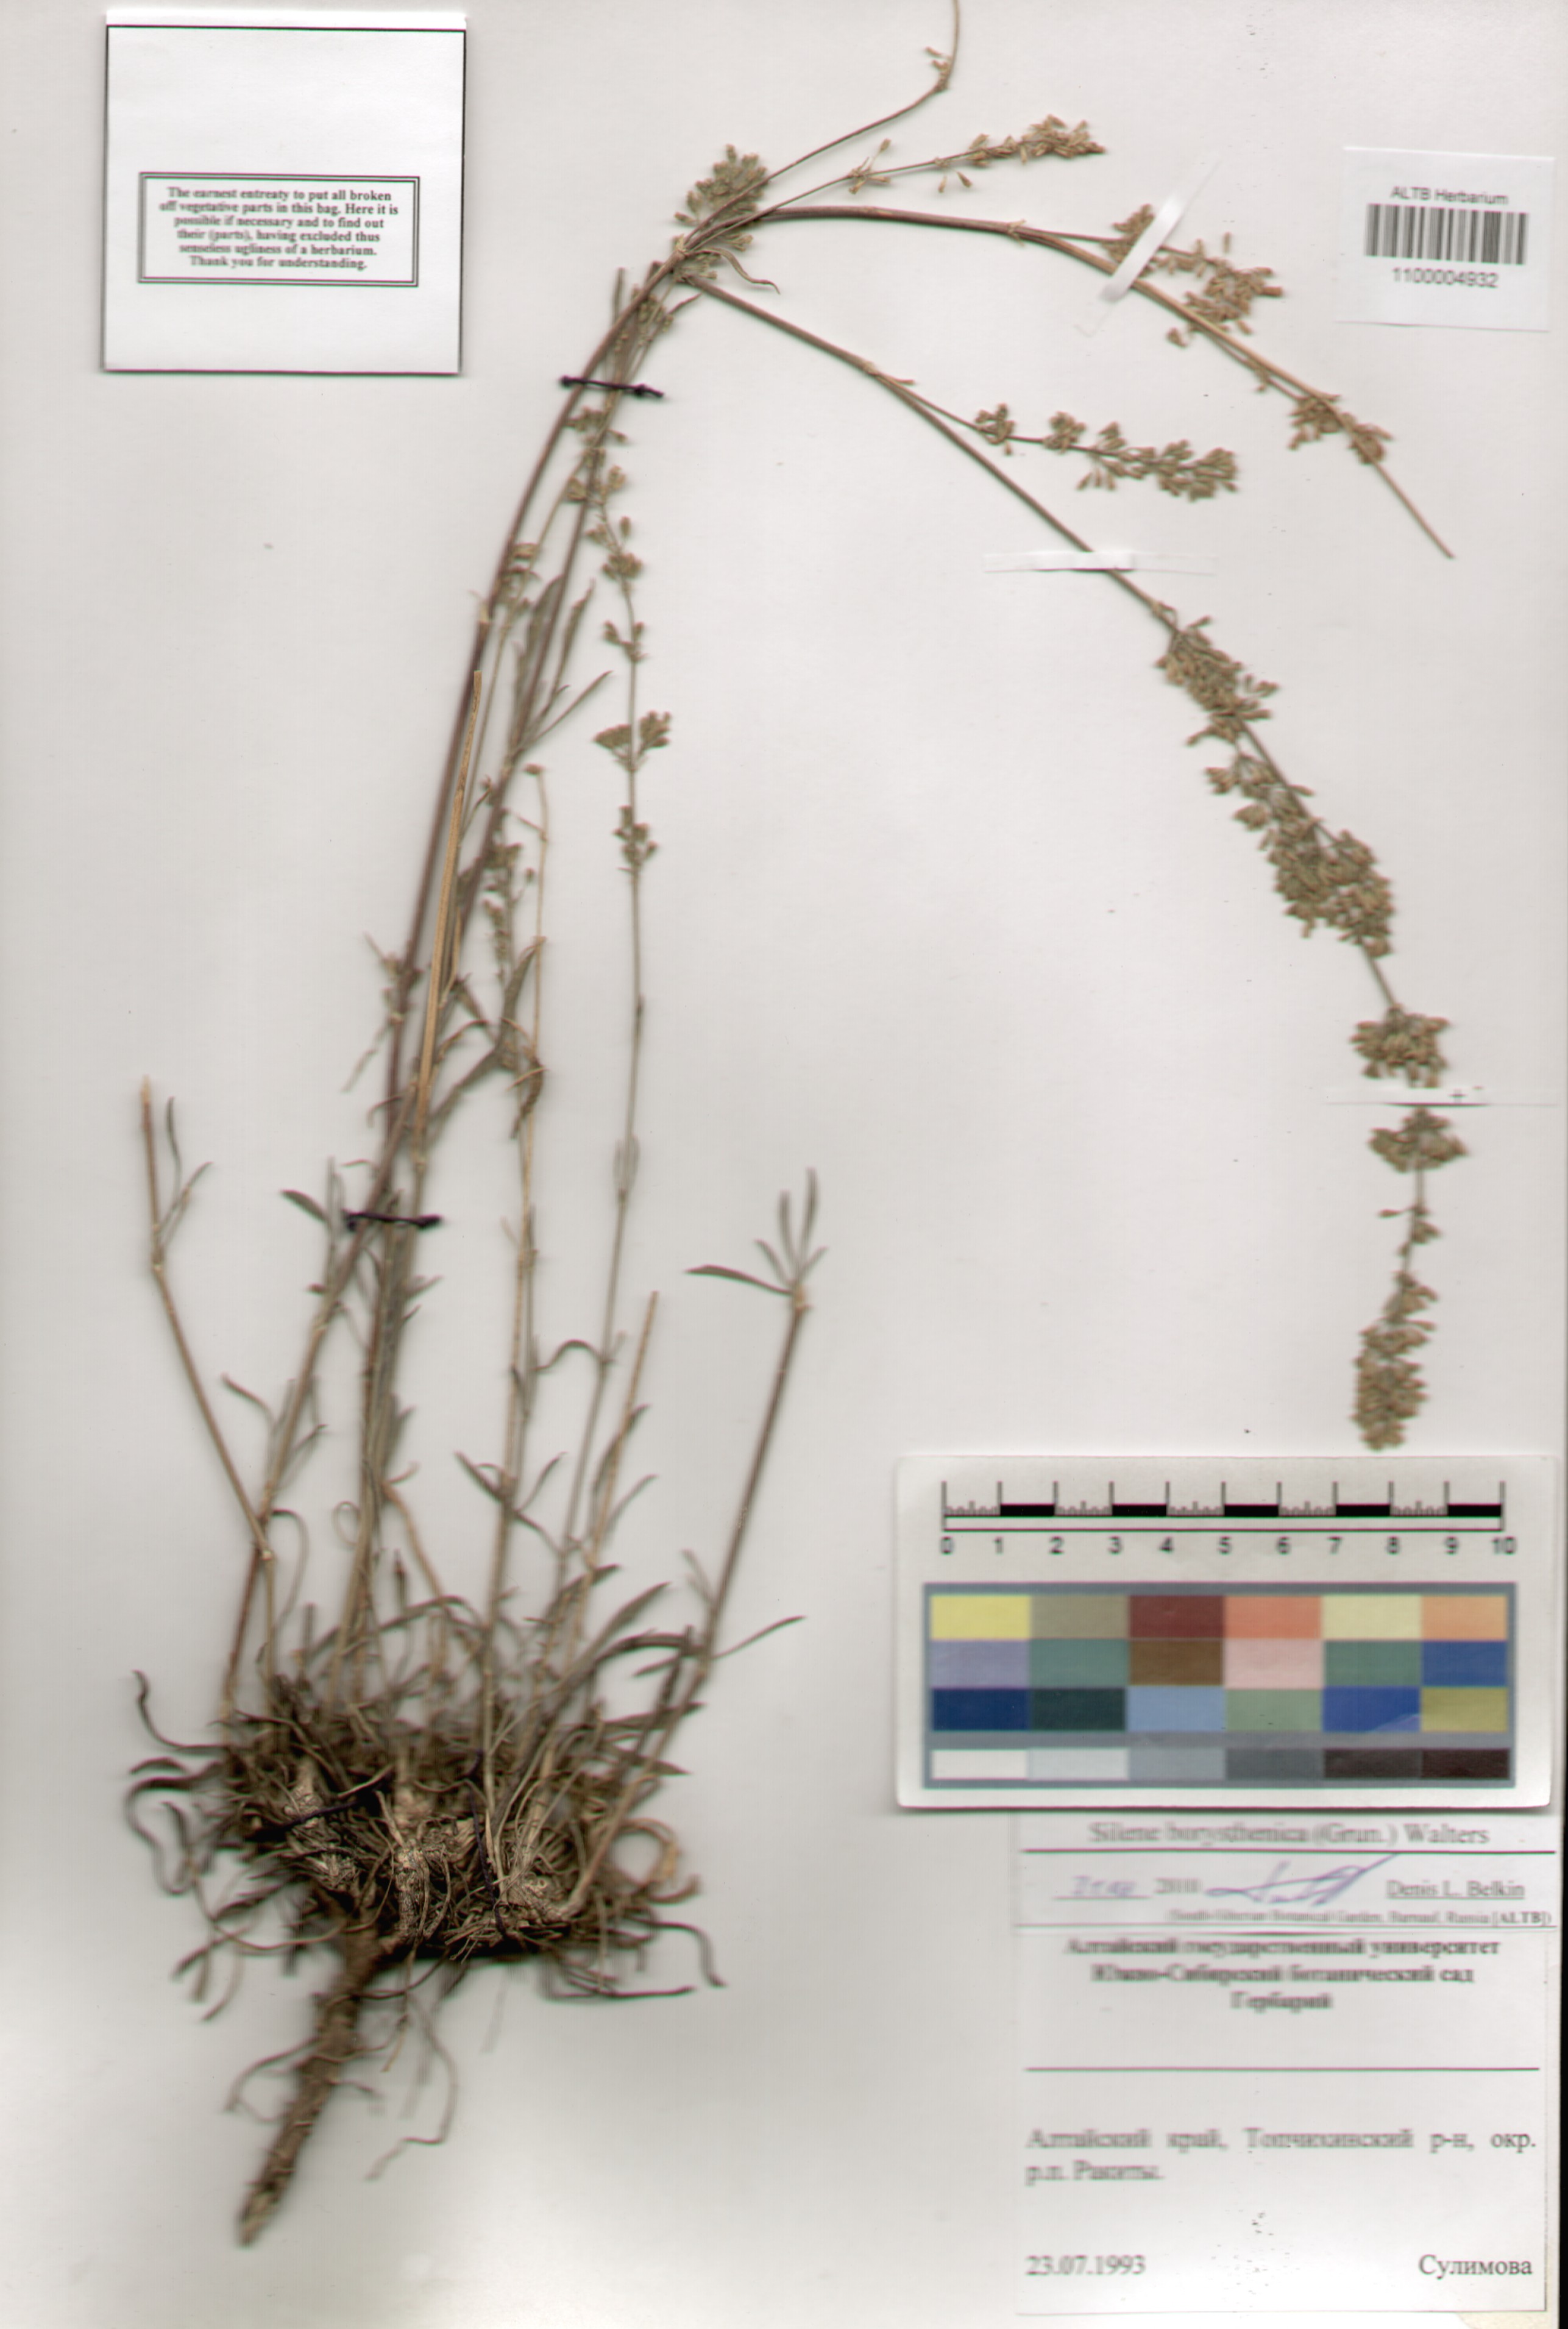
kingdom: Plantae
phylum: Tracheophyta
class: Magnoliopsida
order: Caryophyllales
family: Caryophyllaceae
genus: Silene
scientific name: Silene borysthenica
